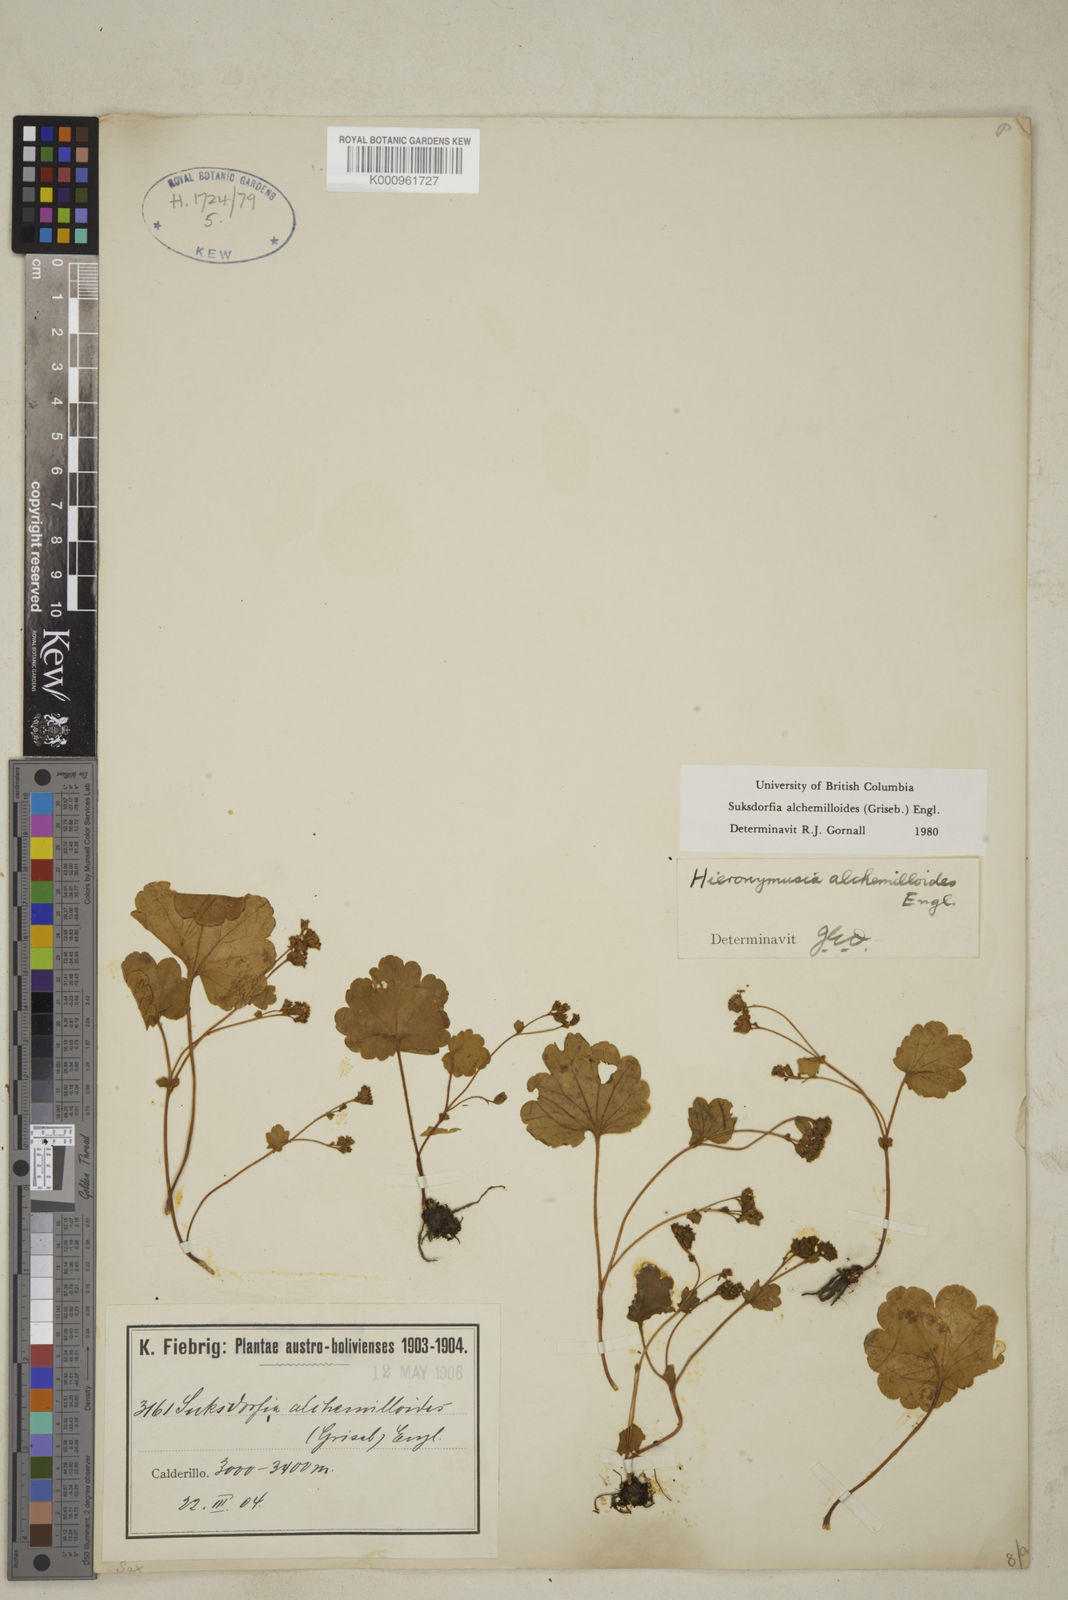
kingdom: Plantae
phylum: Tracheophyta
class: Magnoliopsida
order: Saxifragales
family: Saxifragaceae
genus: Hieronymusia
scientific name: Hieronymusia alchemilloides
